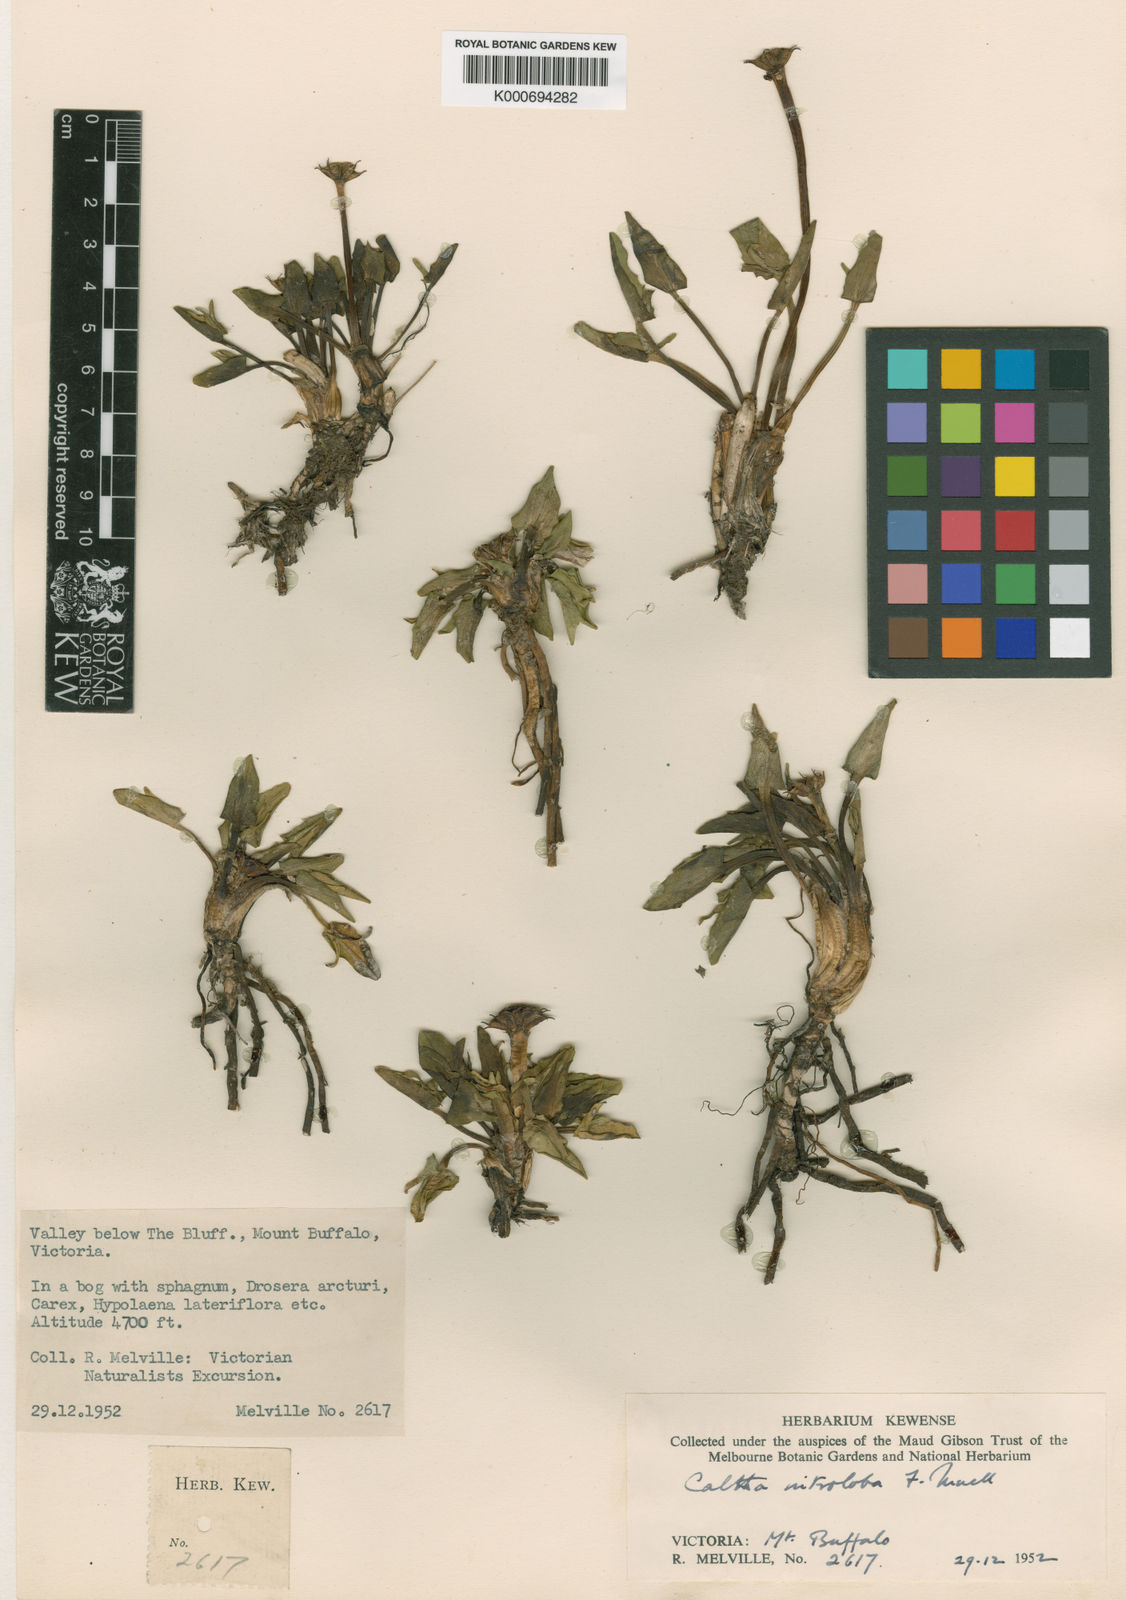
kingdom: Plantae
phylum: Tracheophyta
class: Magnoliopsida
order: Ranunculales
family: Ranunculaceae
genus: Caltha
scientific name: Caltha introloba
